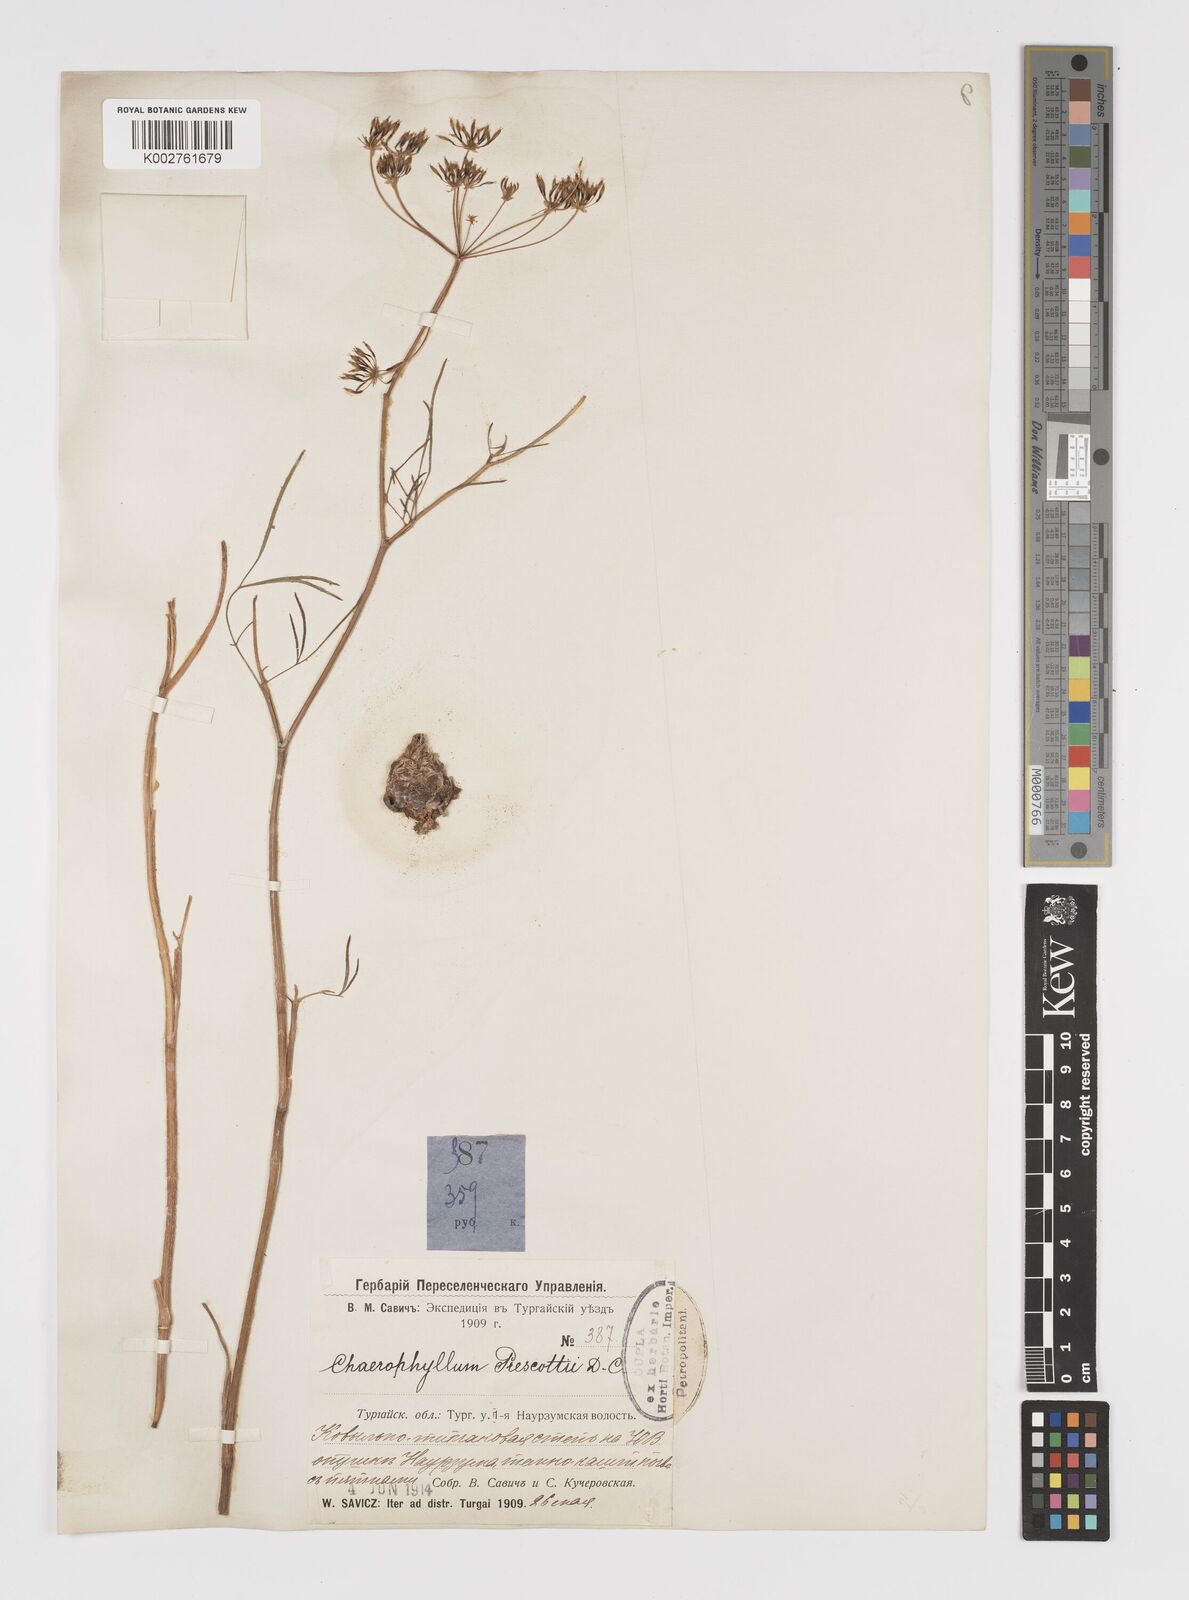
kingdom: Plantae
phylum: Tracheophyta
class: Magnoliopsida
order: Apiales
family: Apiaceae
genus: Chaerophyllum
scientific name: Chaerophyllum prescottii
